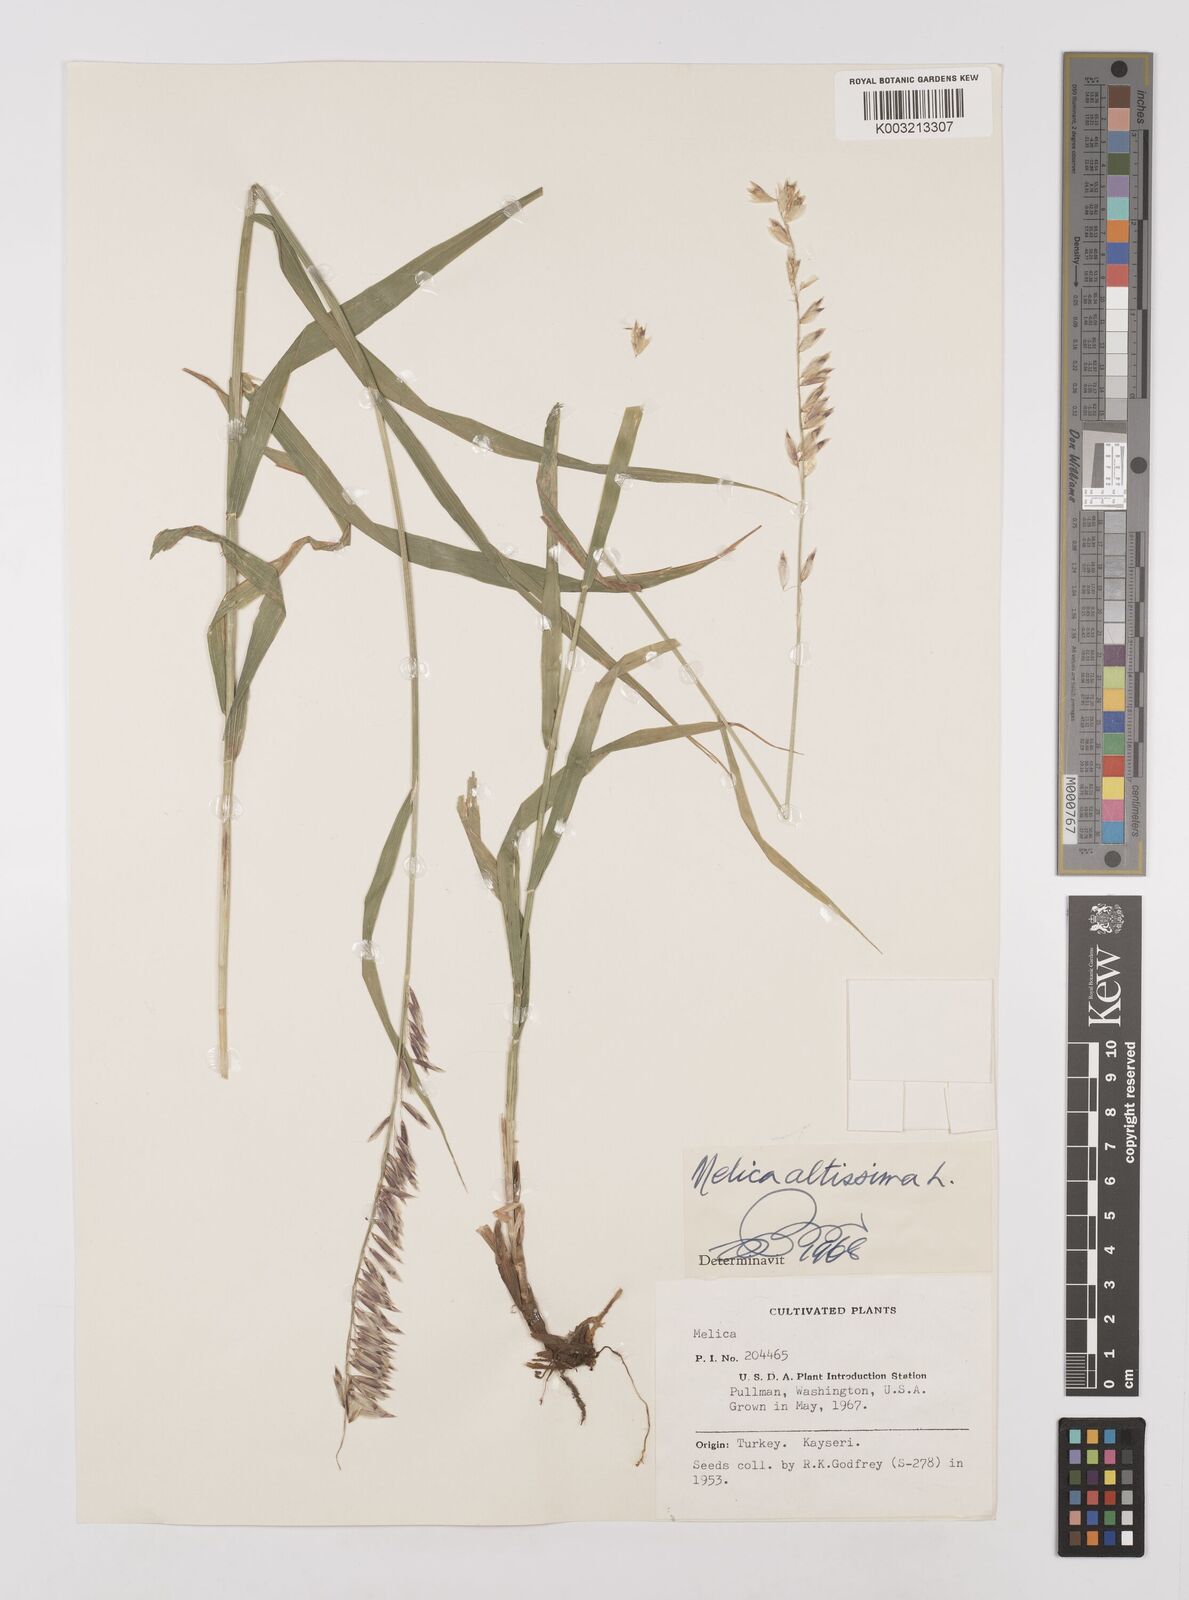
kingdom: Plantae
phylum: Tracheophyta
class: Liliopsida
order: Poales
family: Poaceae
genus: Melica
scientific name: Melica altissima
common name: Siberian melicgrass
